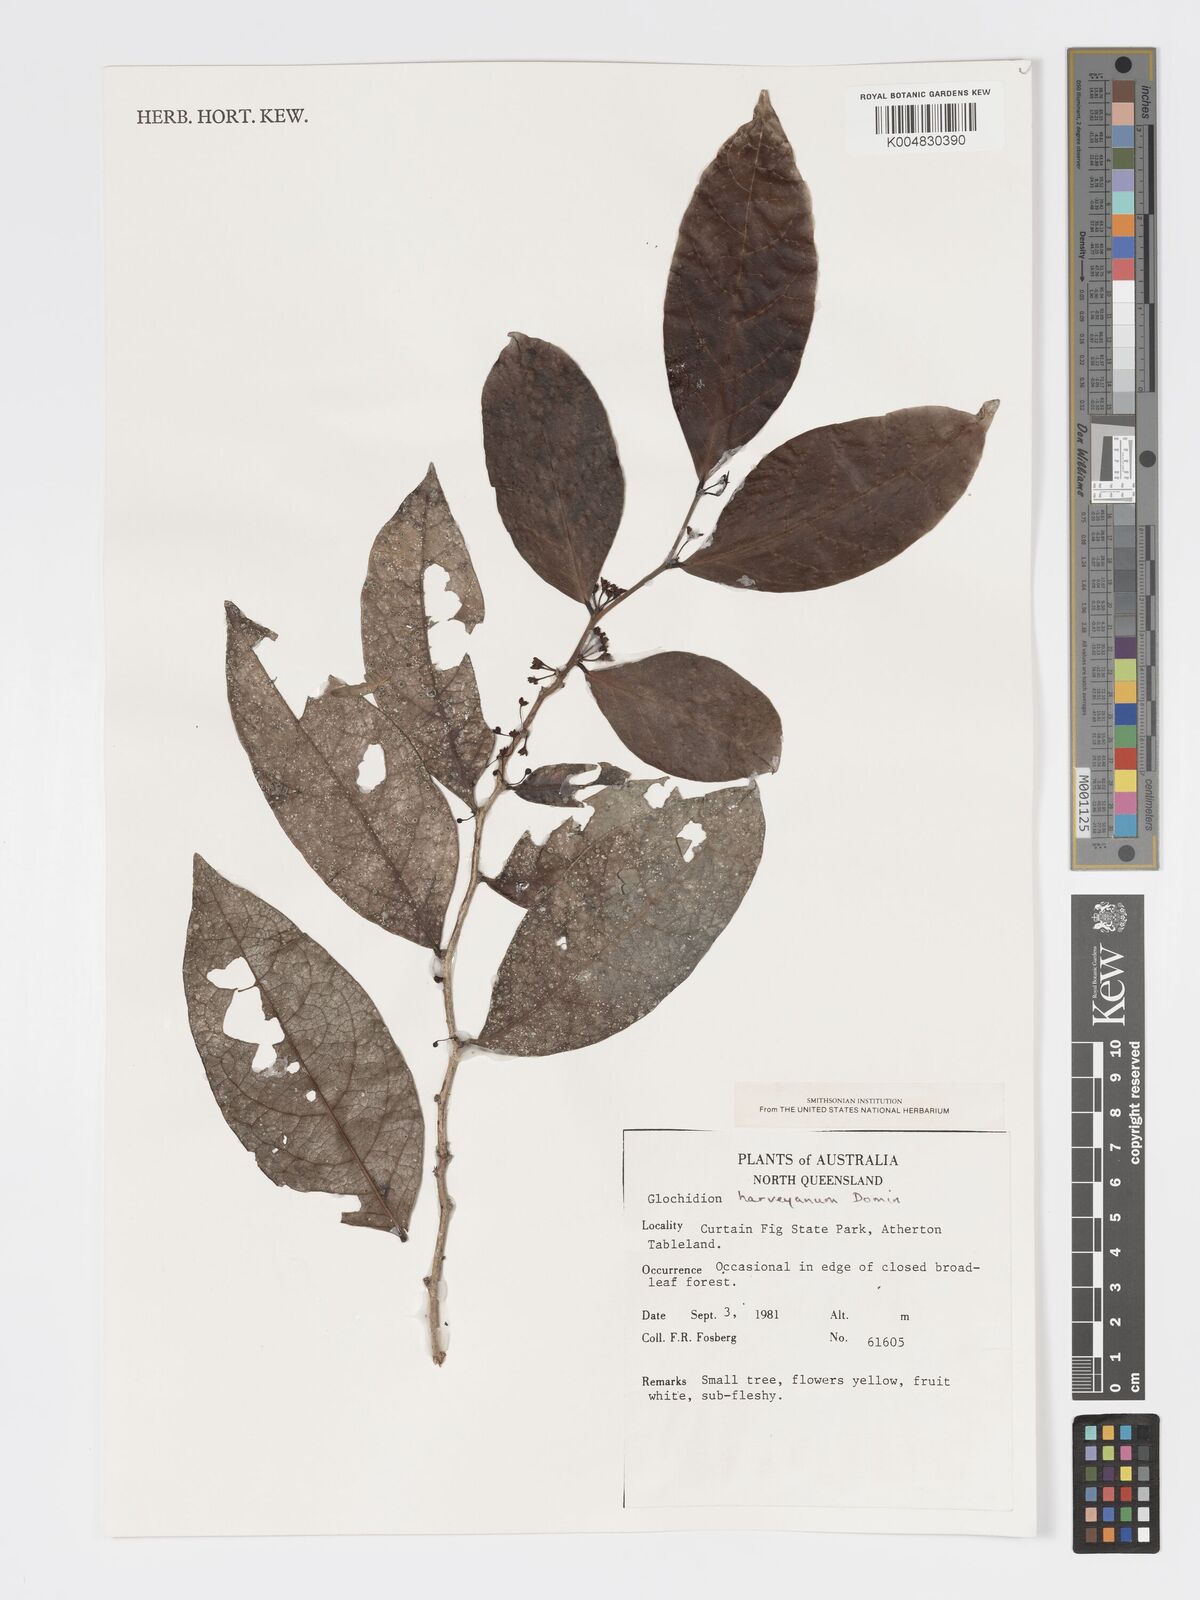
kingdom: Plantae
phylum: Tracheophyta
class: Magnoliopsida
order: Malpighiales
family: Phyllanthaceae
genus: Glochidion
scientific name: Glochidion harveyanum
